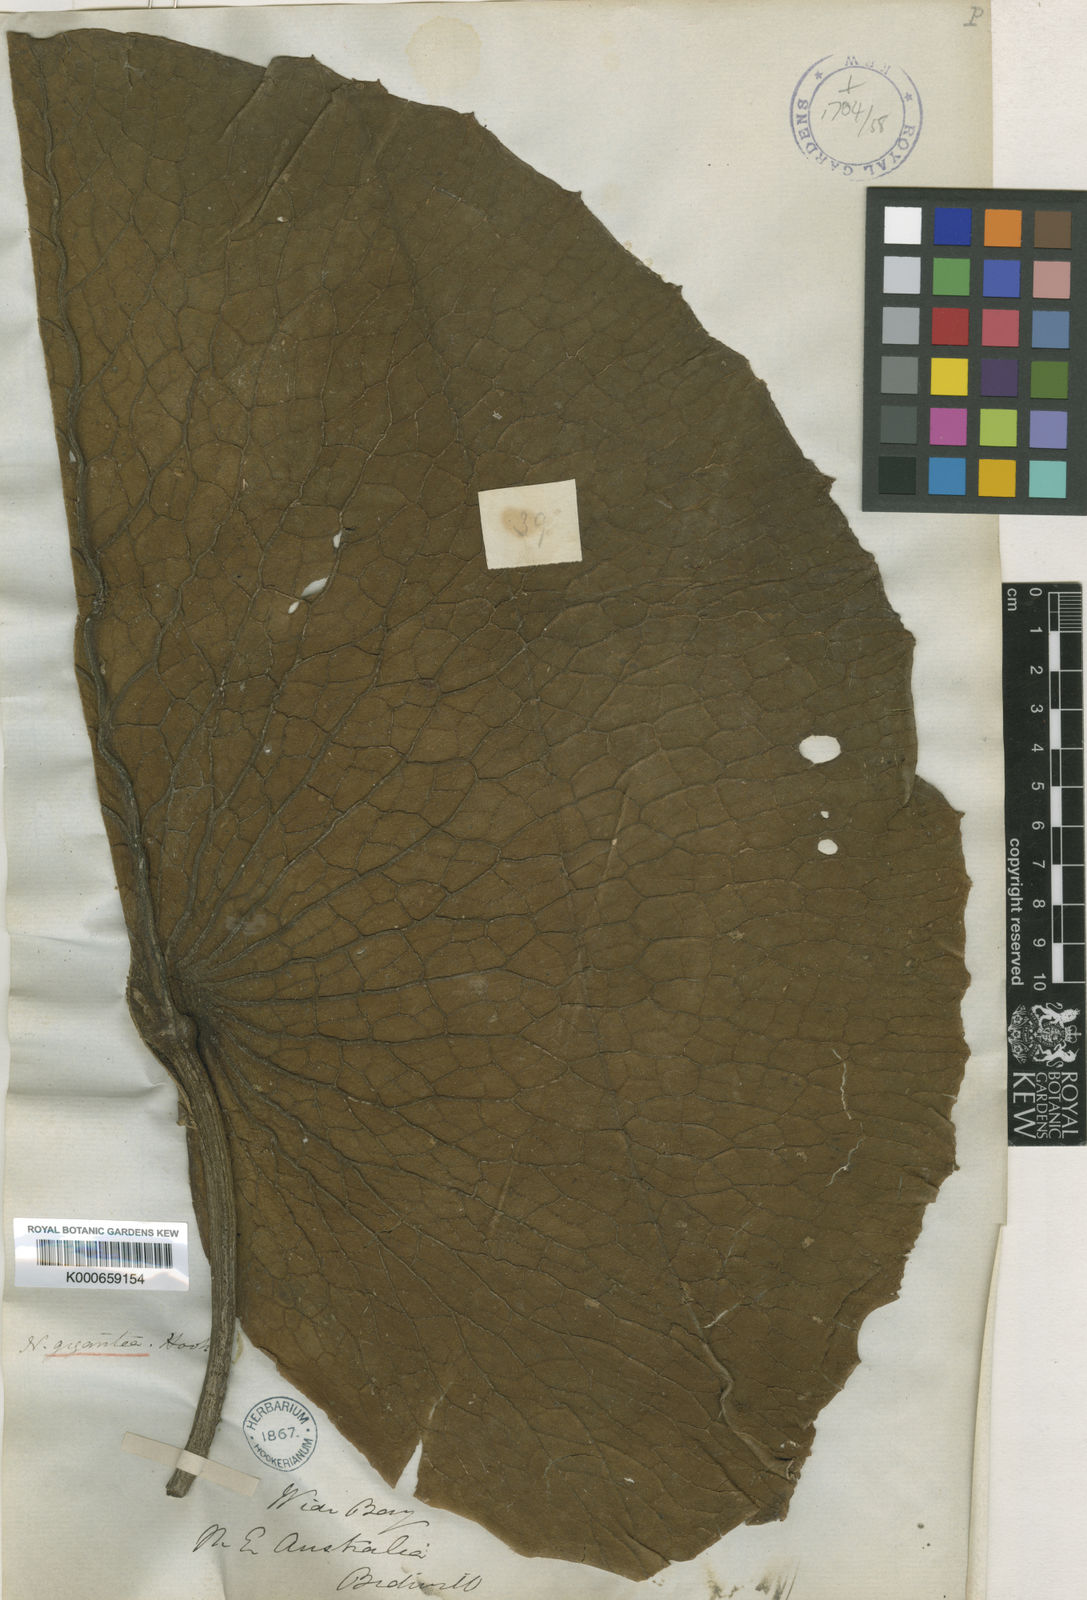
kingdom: Plantae
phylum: Tracheophyta
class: Magnoliopsida
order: Nymphaeales
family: Nymphaeaceae
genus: Nymphaea
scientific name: Nymphaea gigantea
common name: Giant water-lily
